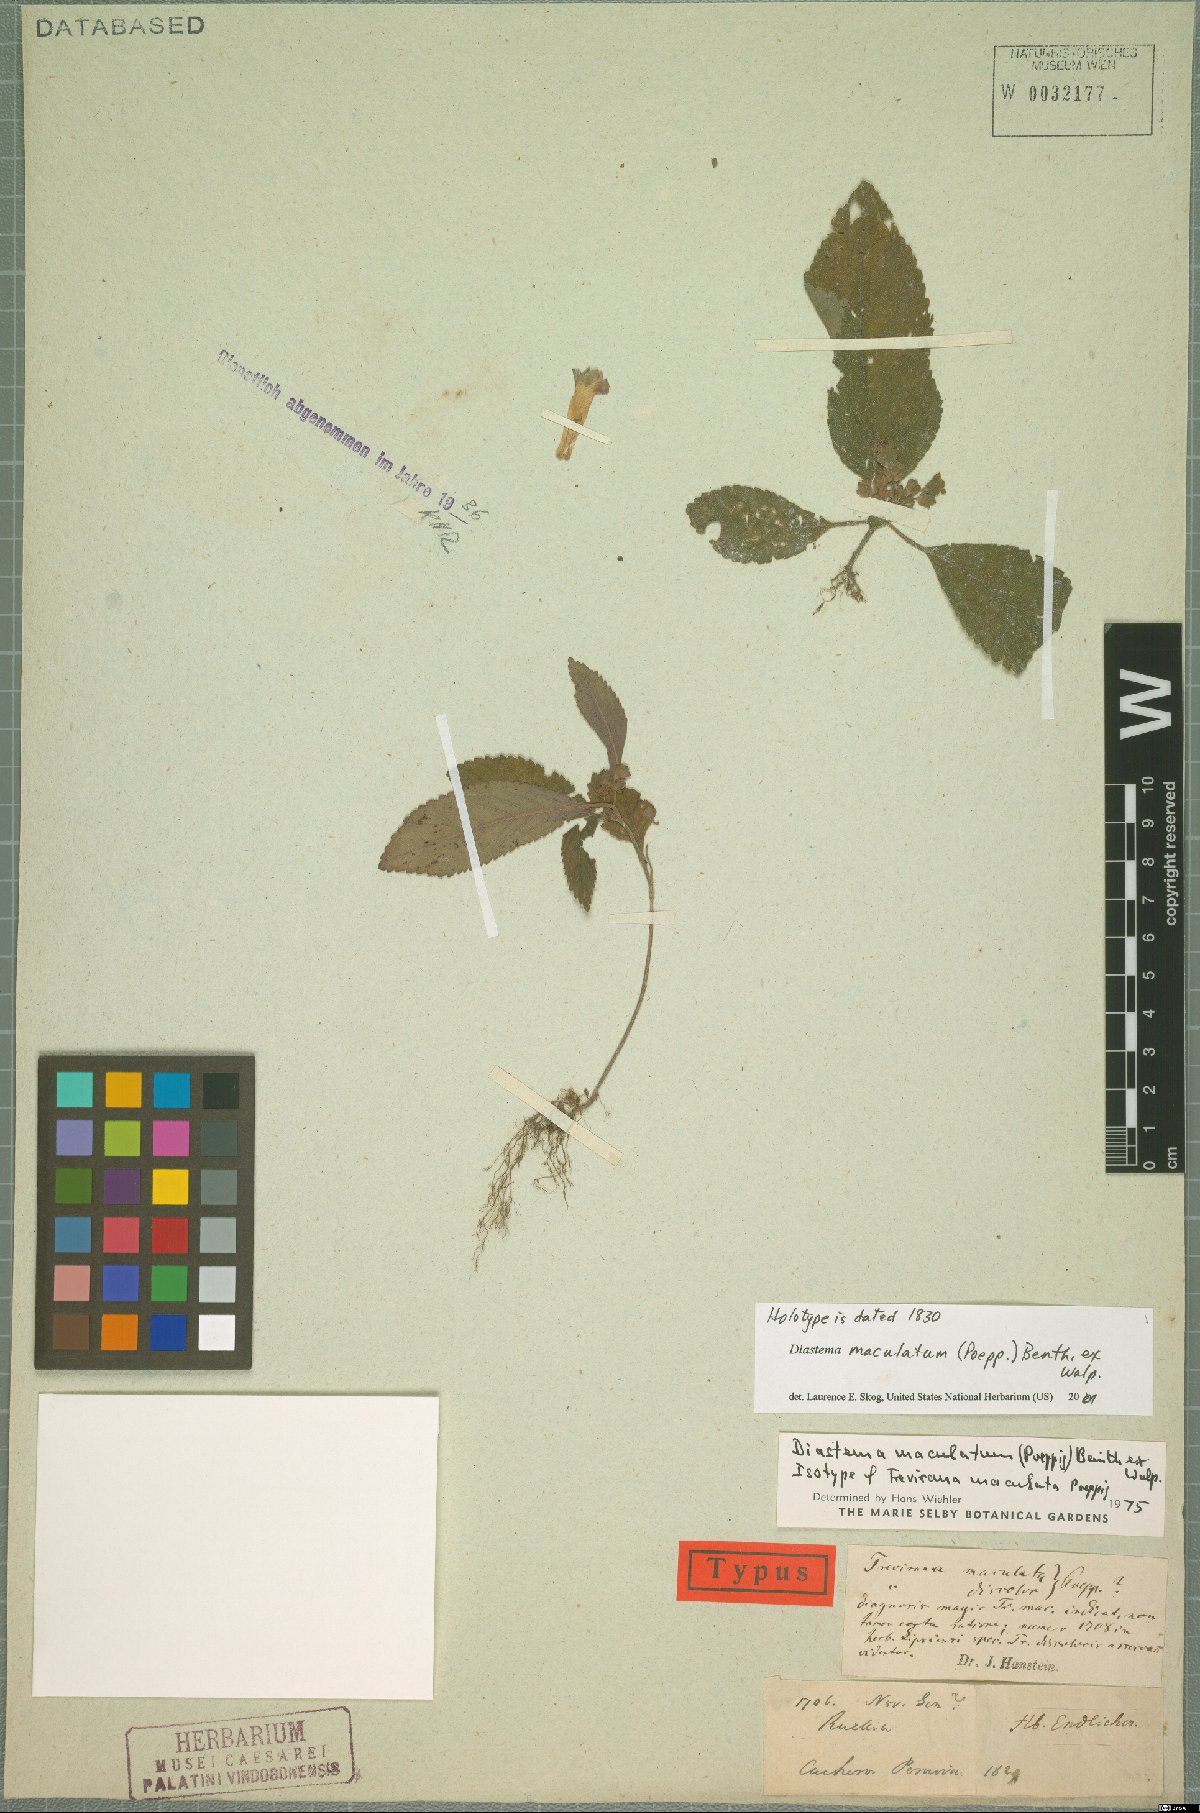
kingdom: Plantae
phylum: Tracheophyta
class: Magnoliopsida
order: Lamiales
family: Gesneriaceae
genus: Diastema
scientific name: Diastema maculatum
